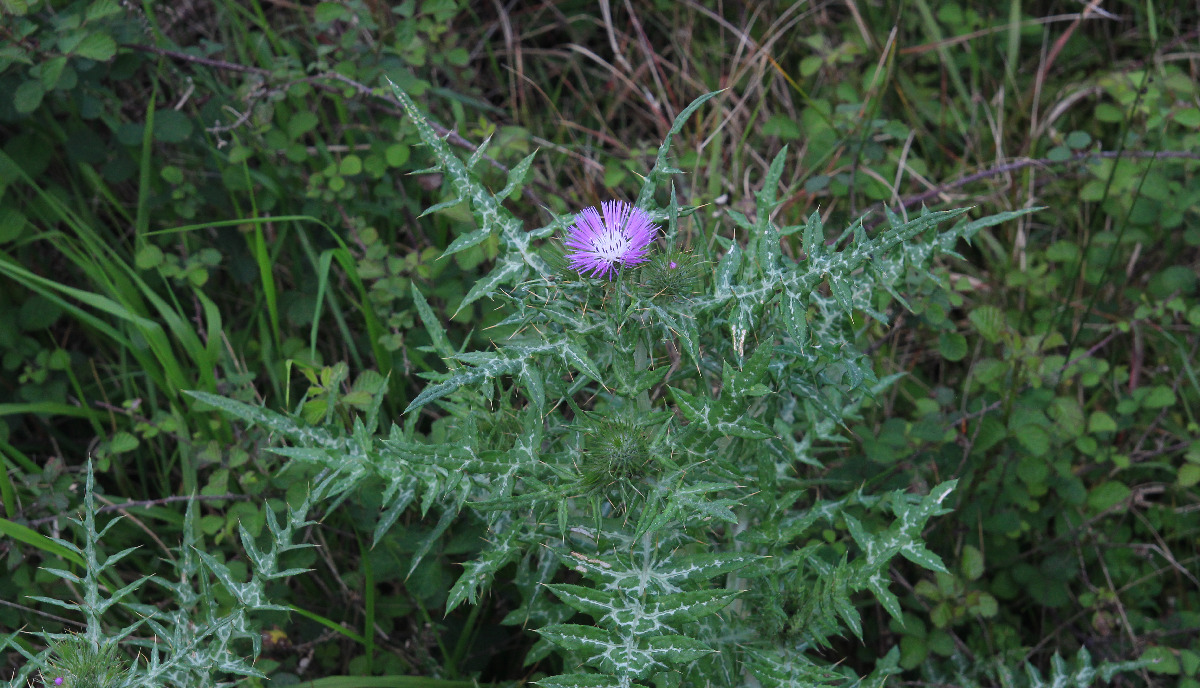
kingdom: Plantae
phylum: Tracheophyta
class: Magnoliopsida
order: Asterales
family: Asteraceae
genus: Galactites
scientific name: Galactites tomentosa
